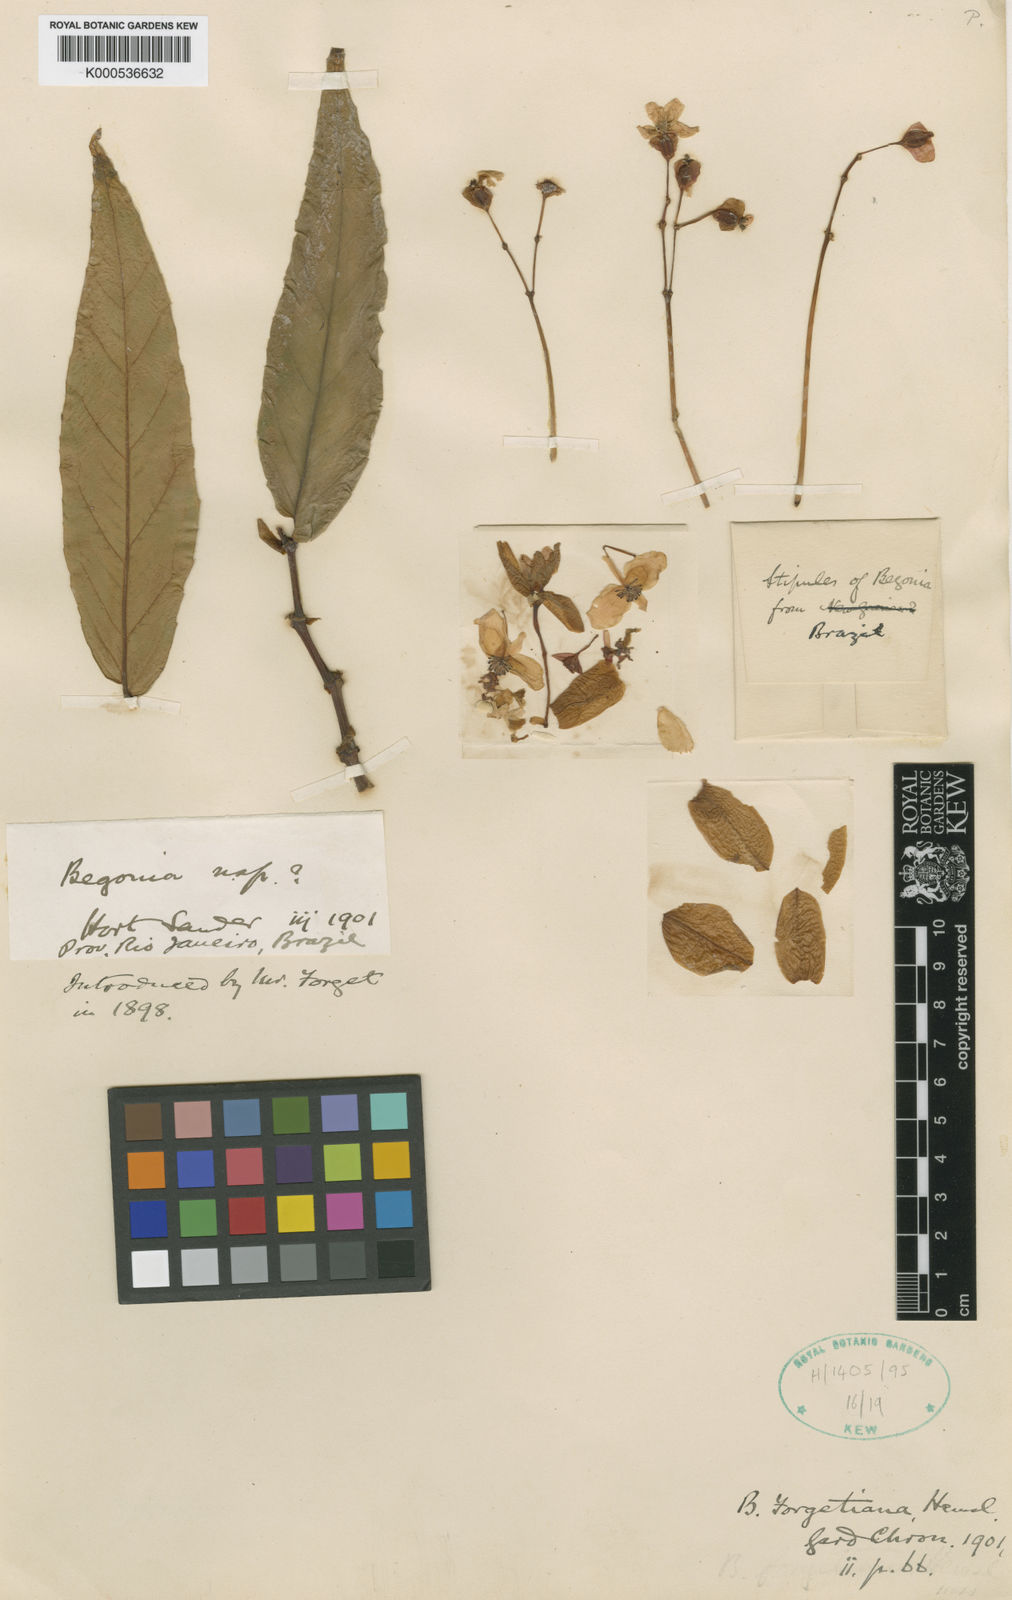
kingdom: Plantae
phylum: Tracheophyta
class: Magnoliopsida
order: Cucurbitales
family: Begoniaceae
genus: Begonia
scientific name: Begonia forgetiana
